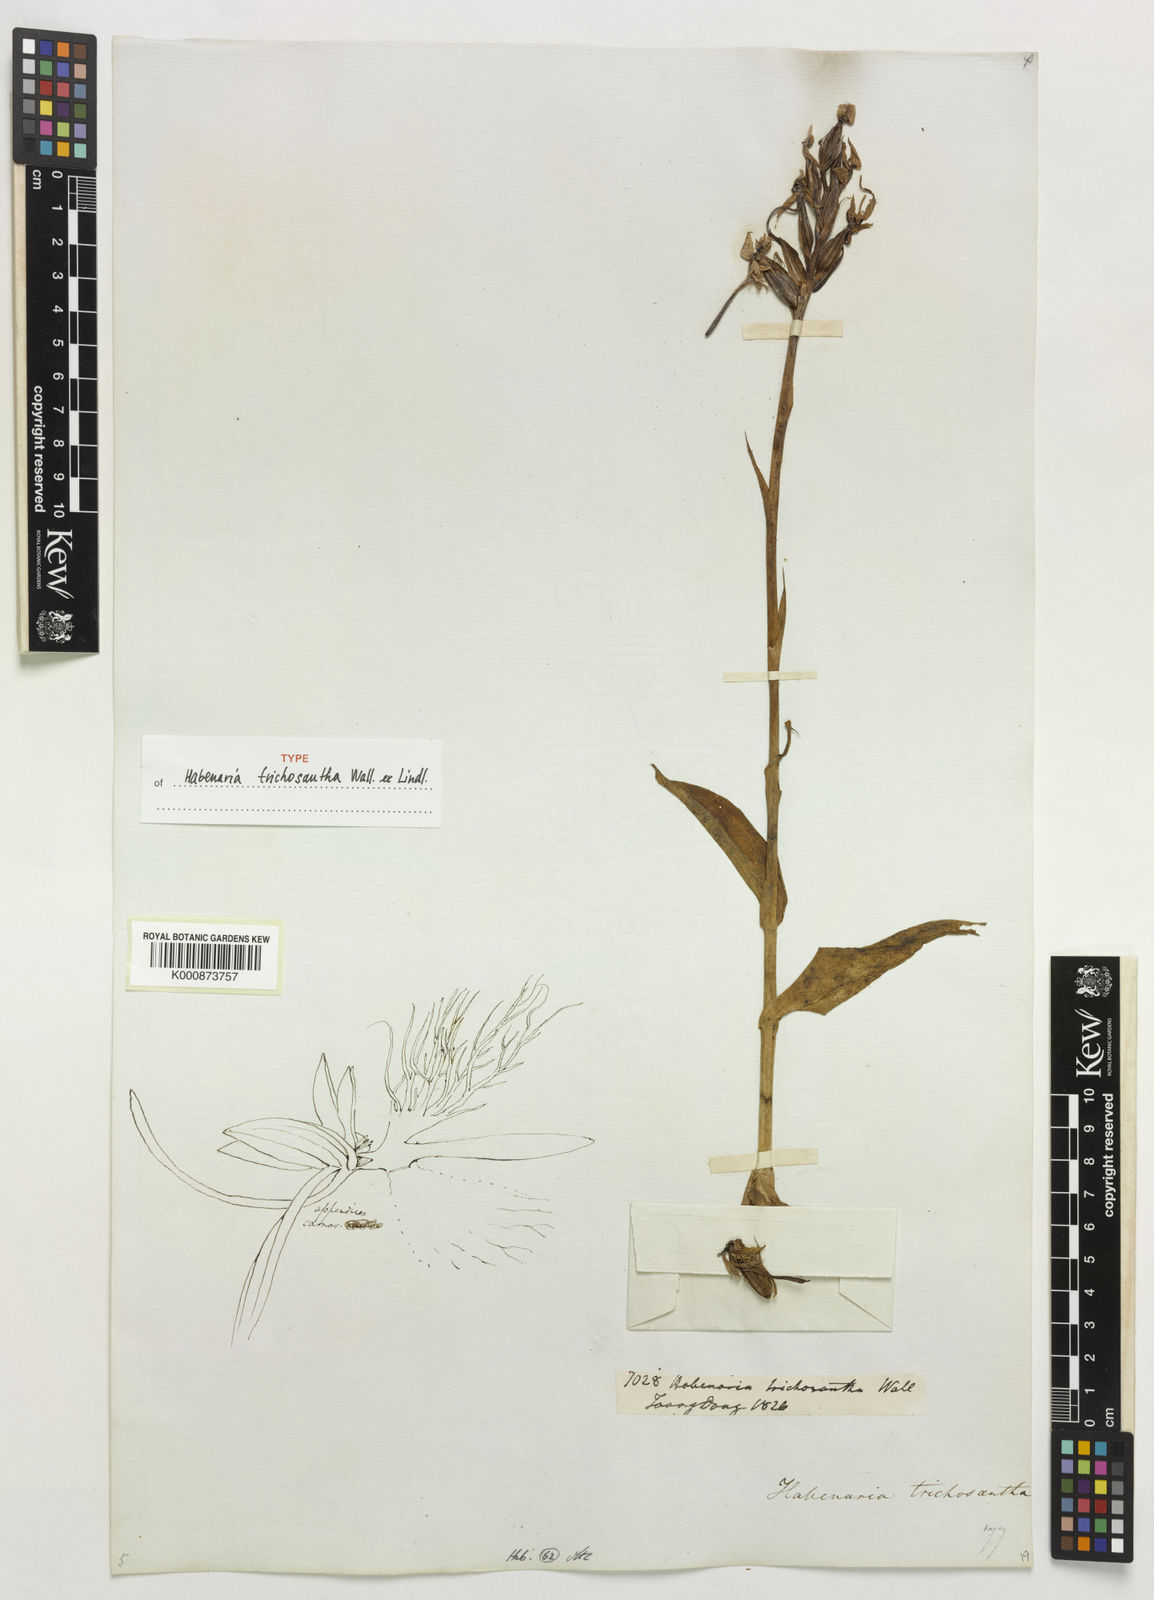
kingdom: Plantae
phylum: Tracheophyta
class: Liliopsida
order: Asparagales
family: Orchidaceae
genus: Habenaria
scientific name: Habenaria trichosantha
